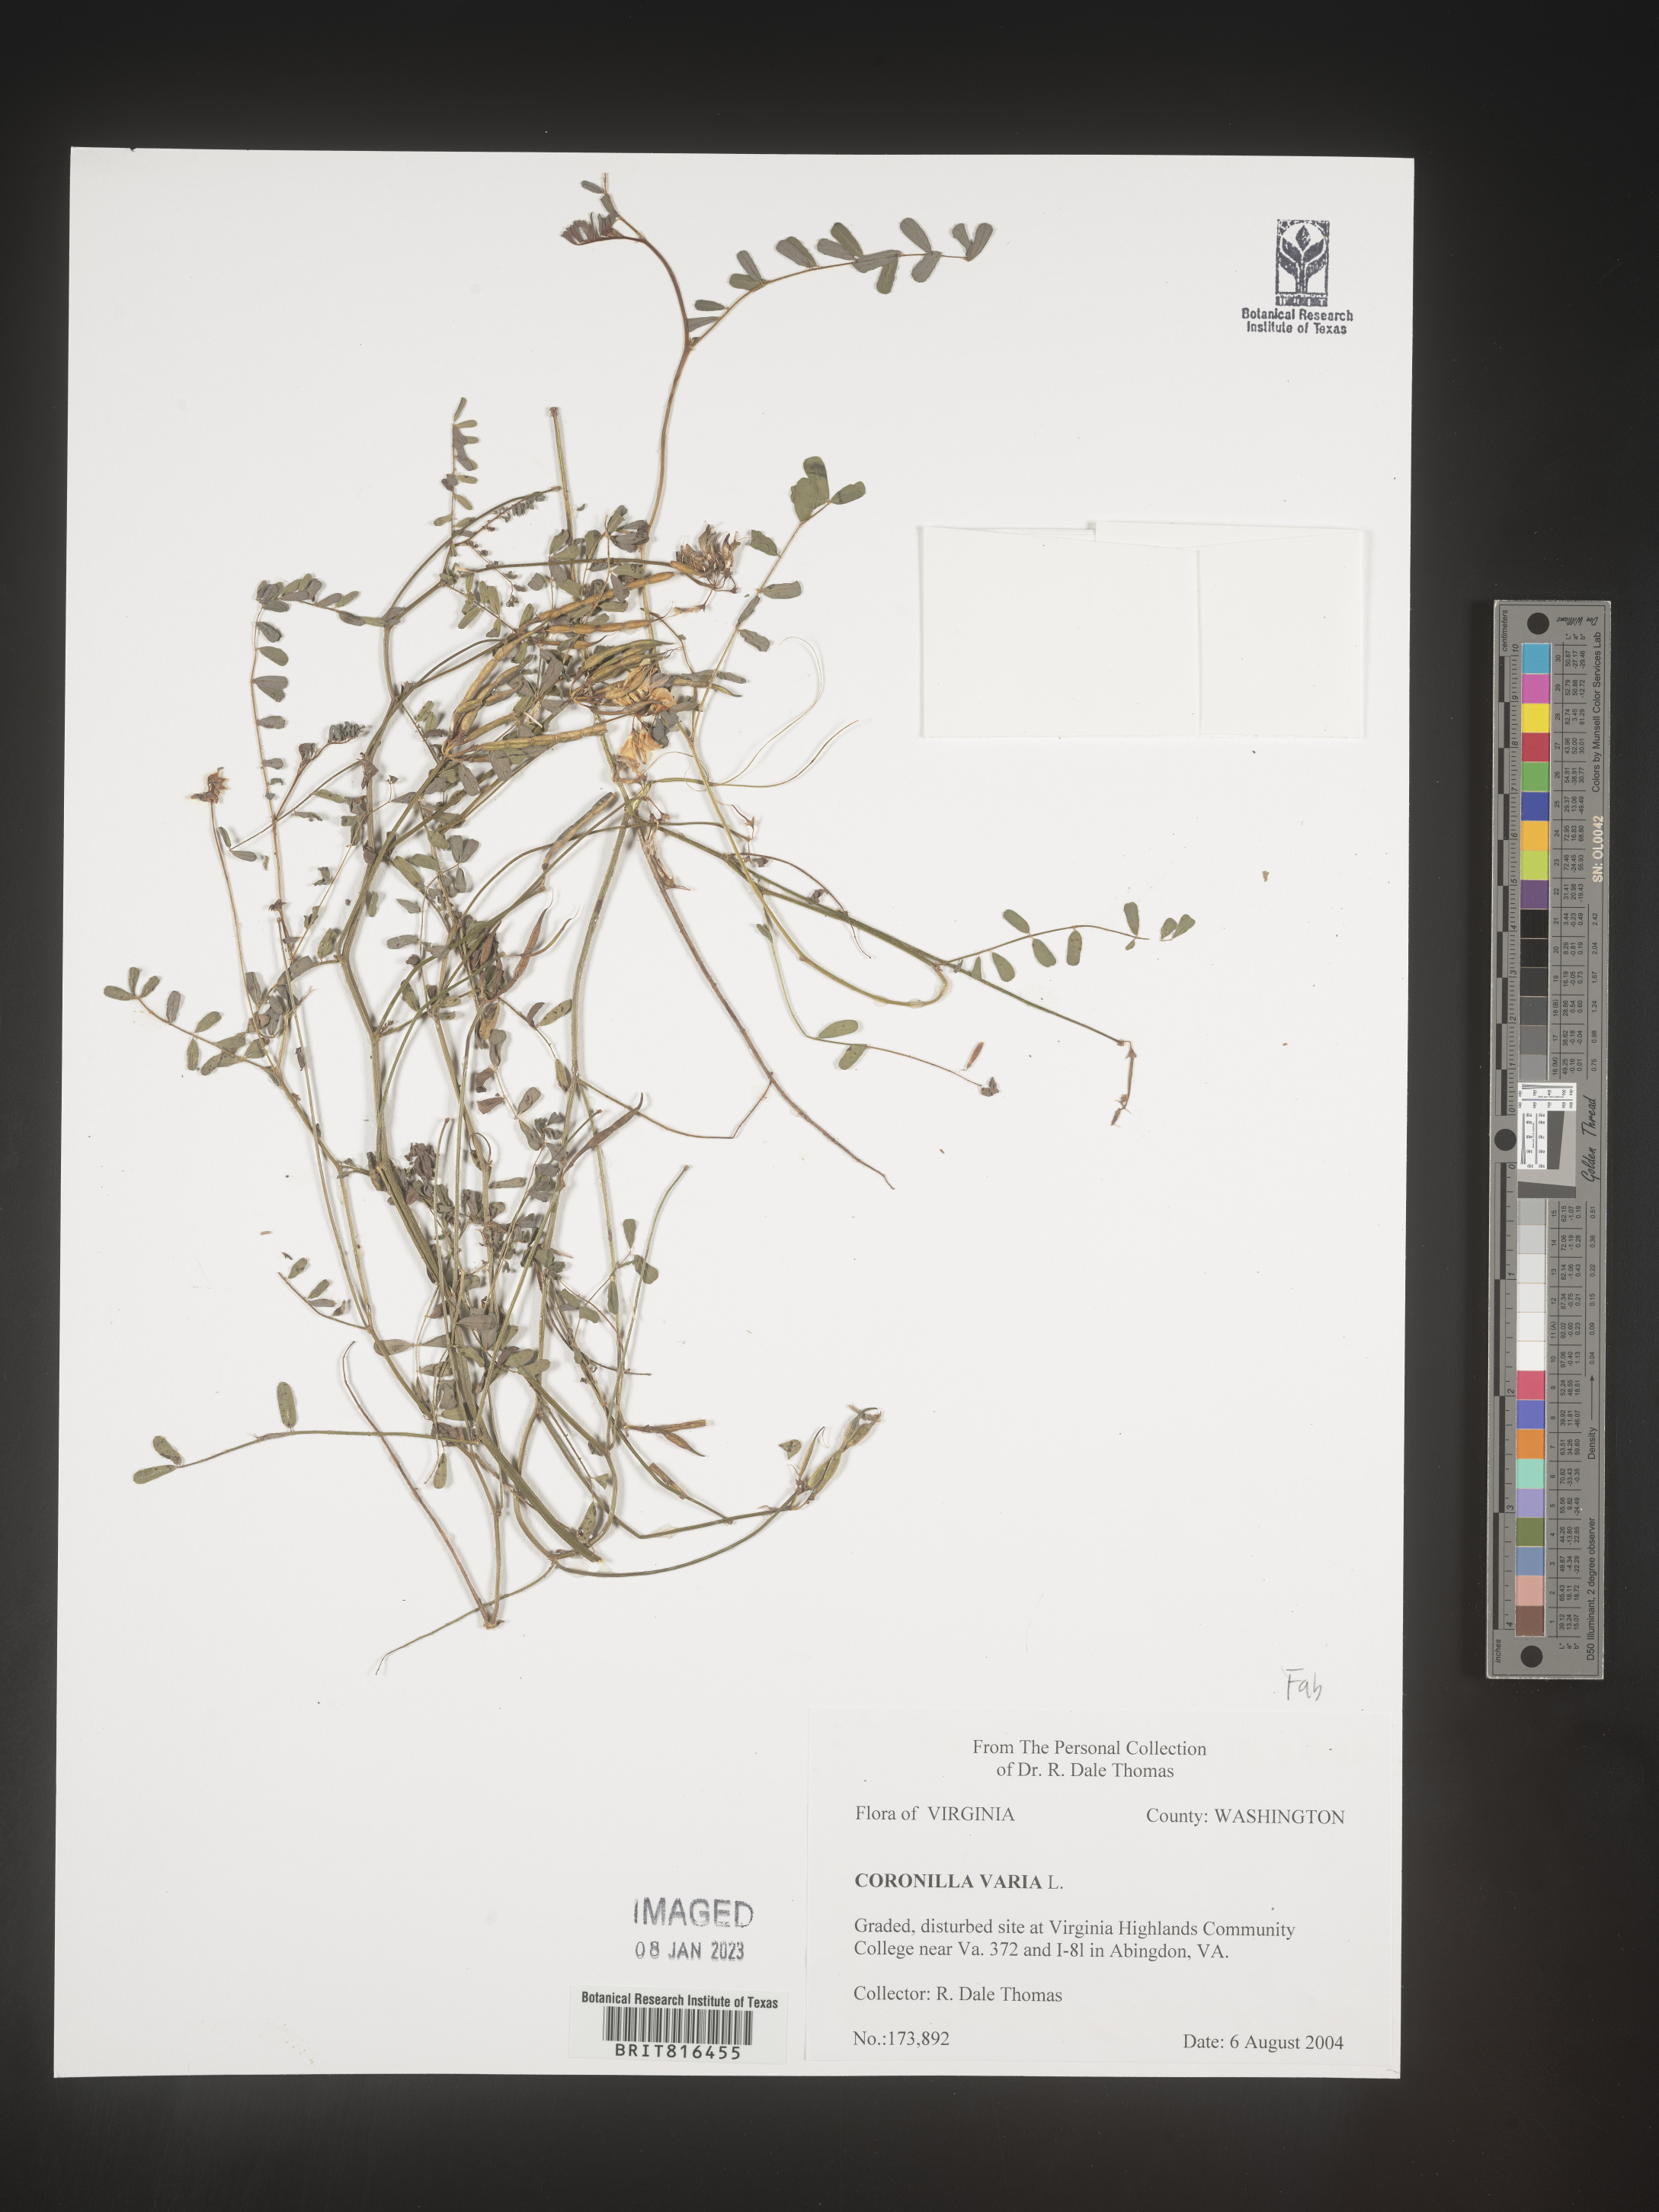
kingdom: Plantae
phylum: Tracheophyta
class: Magnoliopsida
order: Fabales
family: Fabaceae
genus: Coronilla
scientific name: Coronilla
